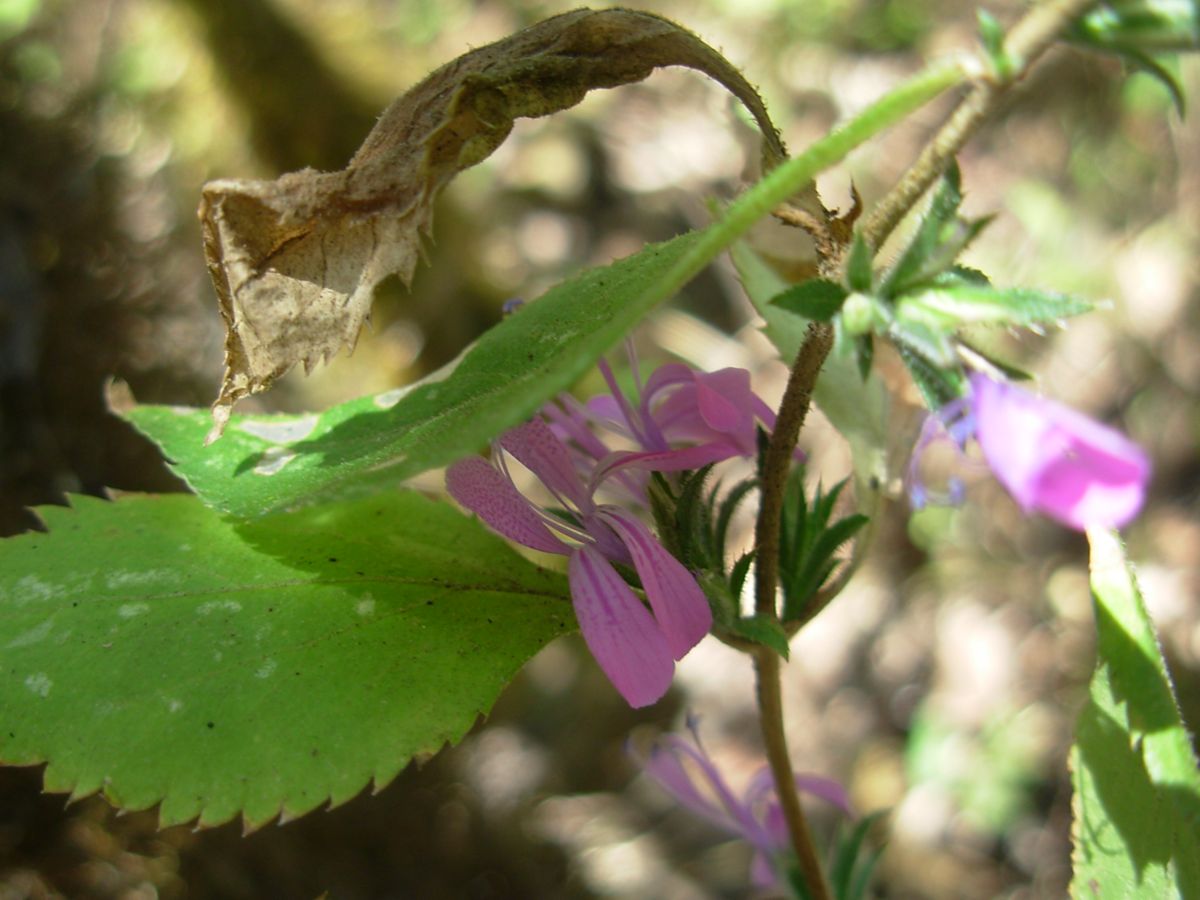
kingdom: Plantae
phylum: Tracheophyta
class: Magnoliopsida
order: Ericales
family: Polemoniaceae
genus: Loeselia
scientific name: Loeselia glandulosa
